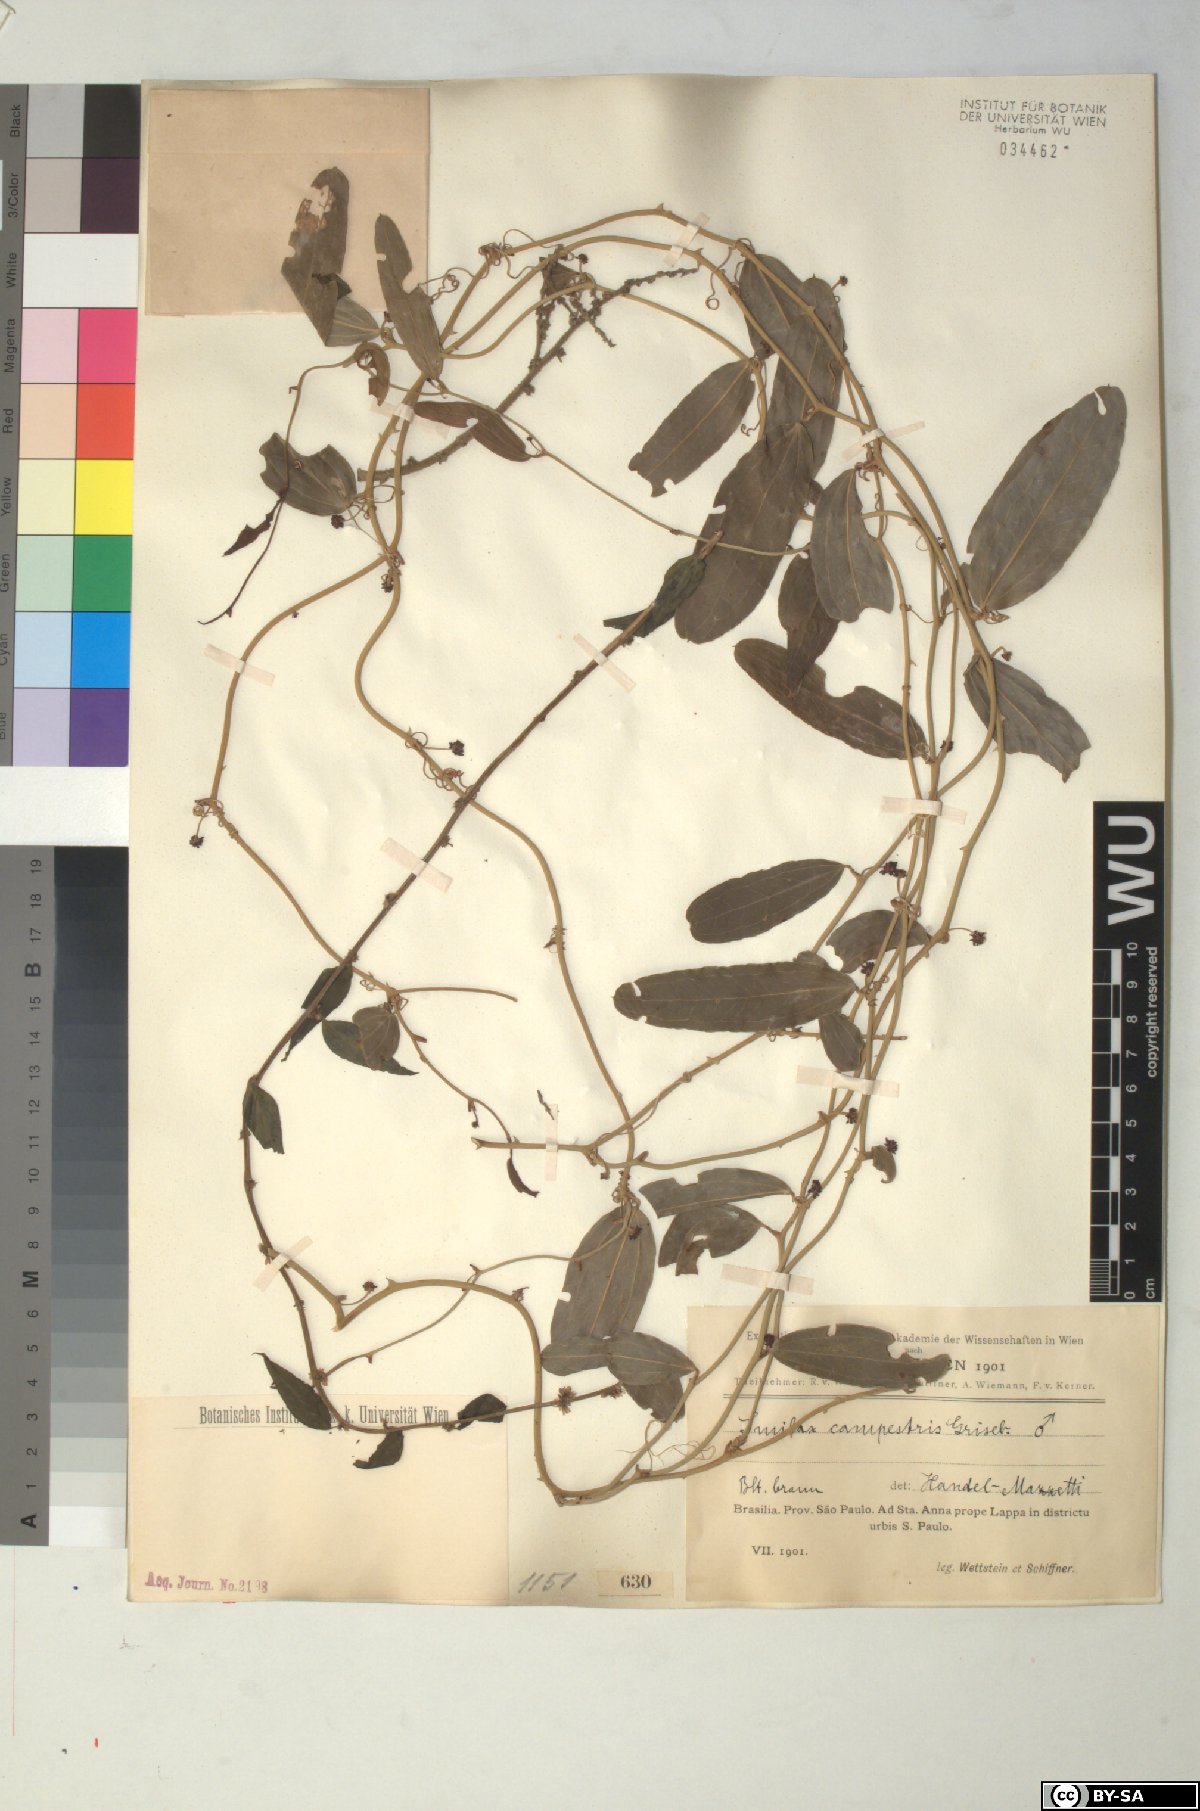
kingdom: Plantae
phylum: Tracheophyta
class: Liliopsida
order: Liliales
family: Smilacaceae
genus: Smilax
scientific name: Smilax campestris
